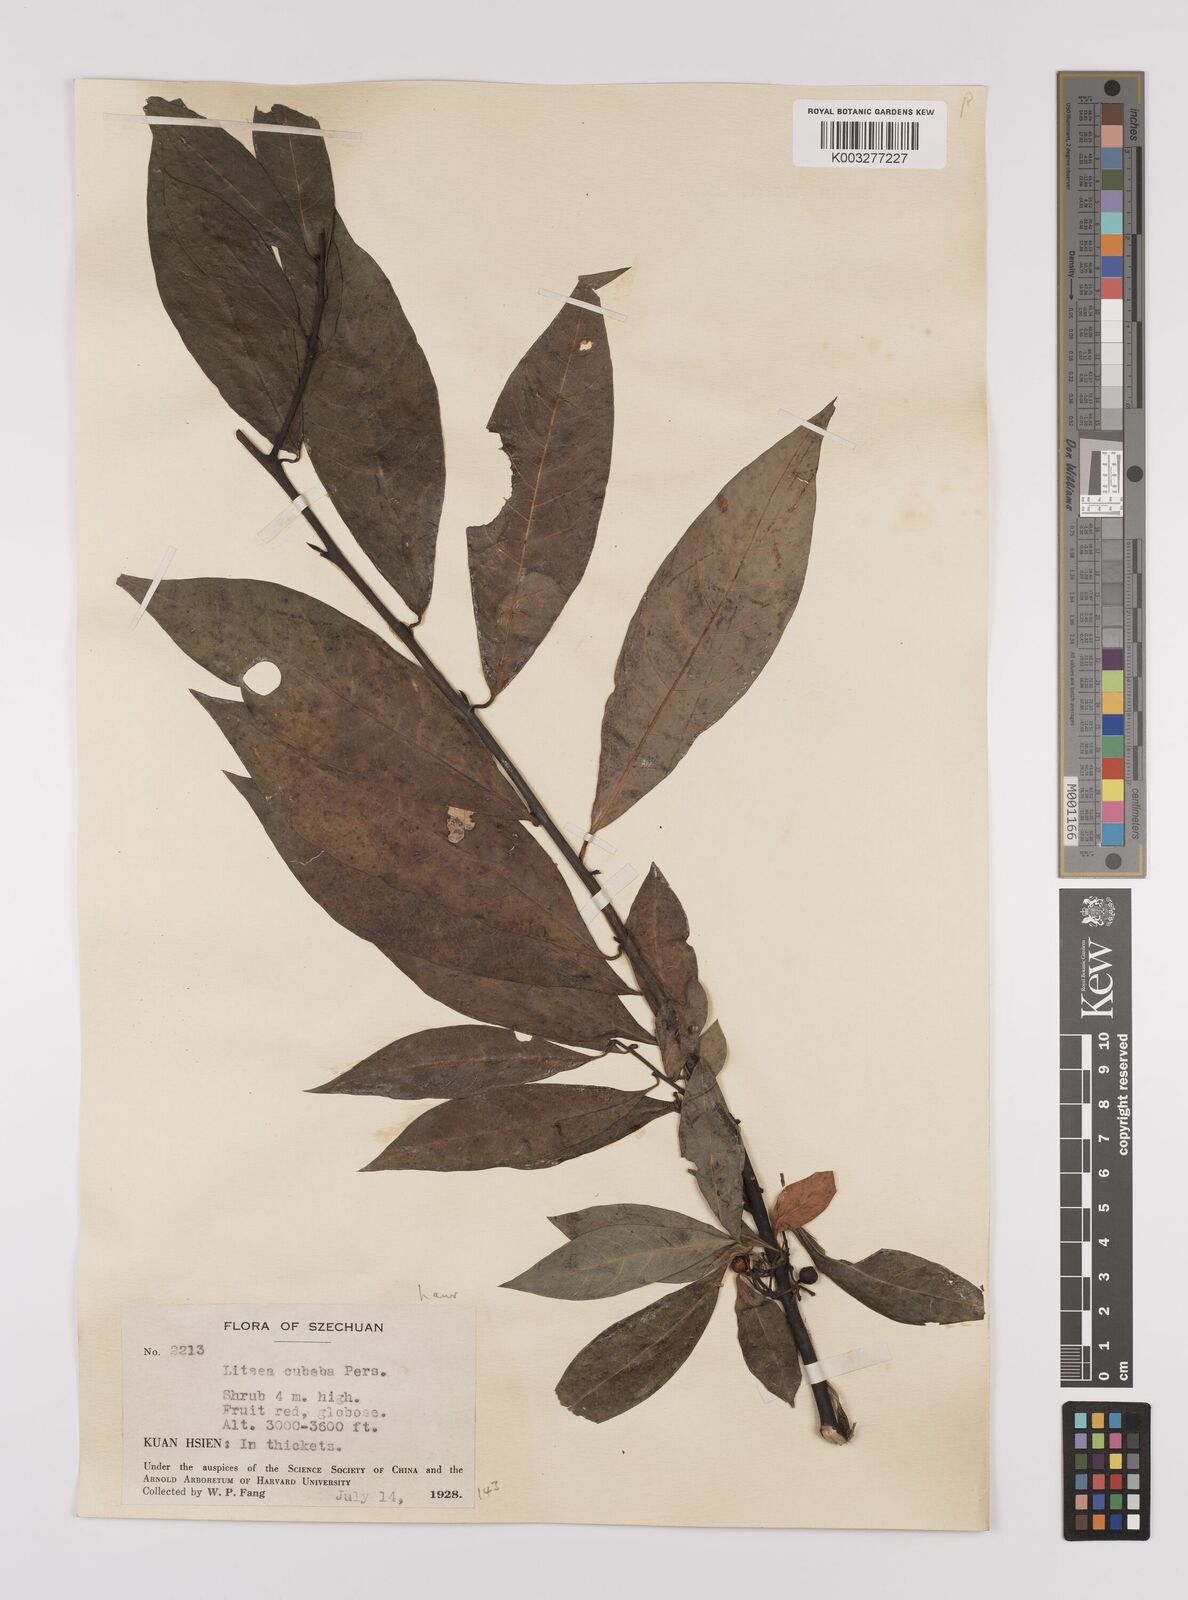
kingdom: Plantae
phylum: Tracheophyta
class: Magnoliopsida
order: Laurales
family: Lauraceae
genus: Litsea
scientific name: Litsea cubeba
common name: Mountain-pepper
